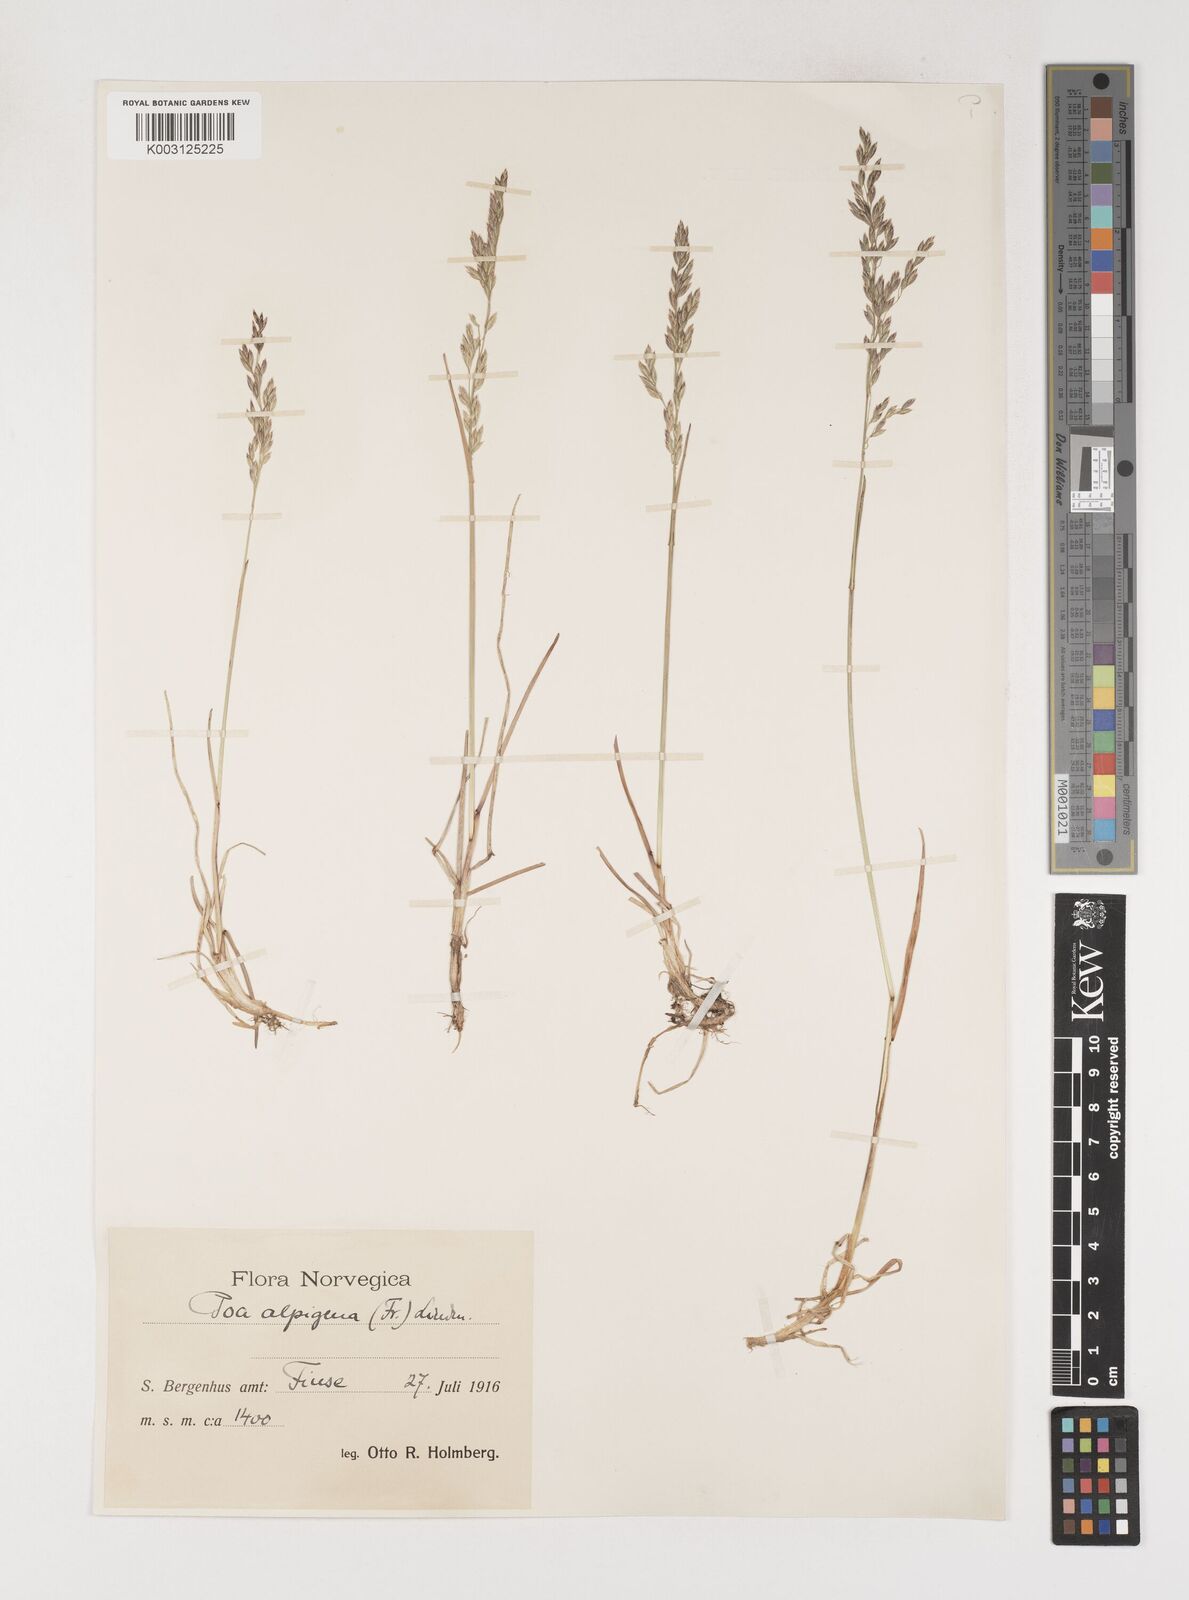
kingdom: Plantae
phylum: Tracheophyta
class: Liliopsida
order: Poales
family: Poaceae
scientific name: Poaceae
